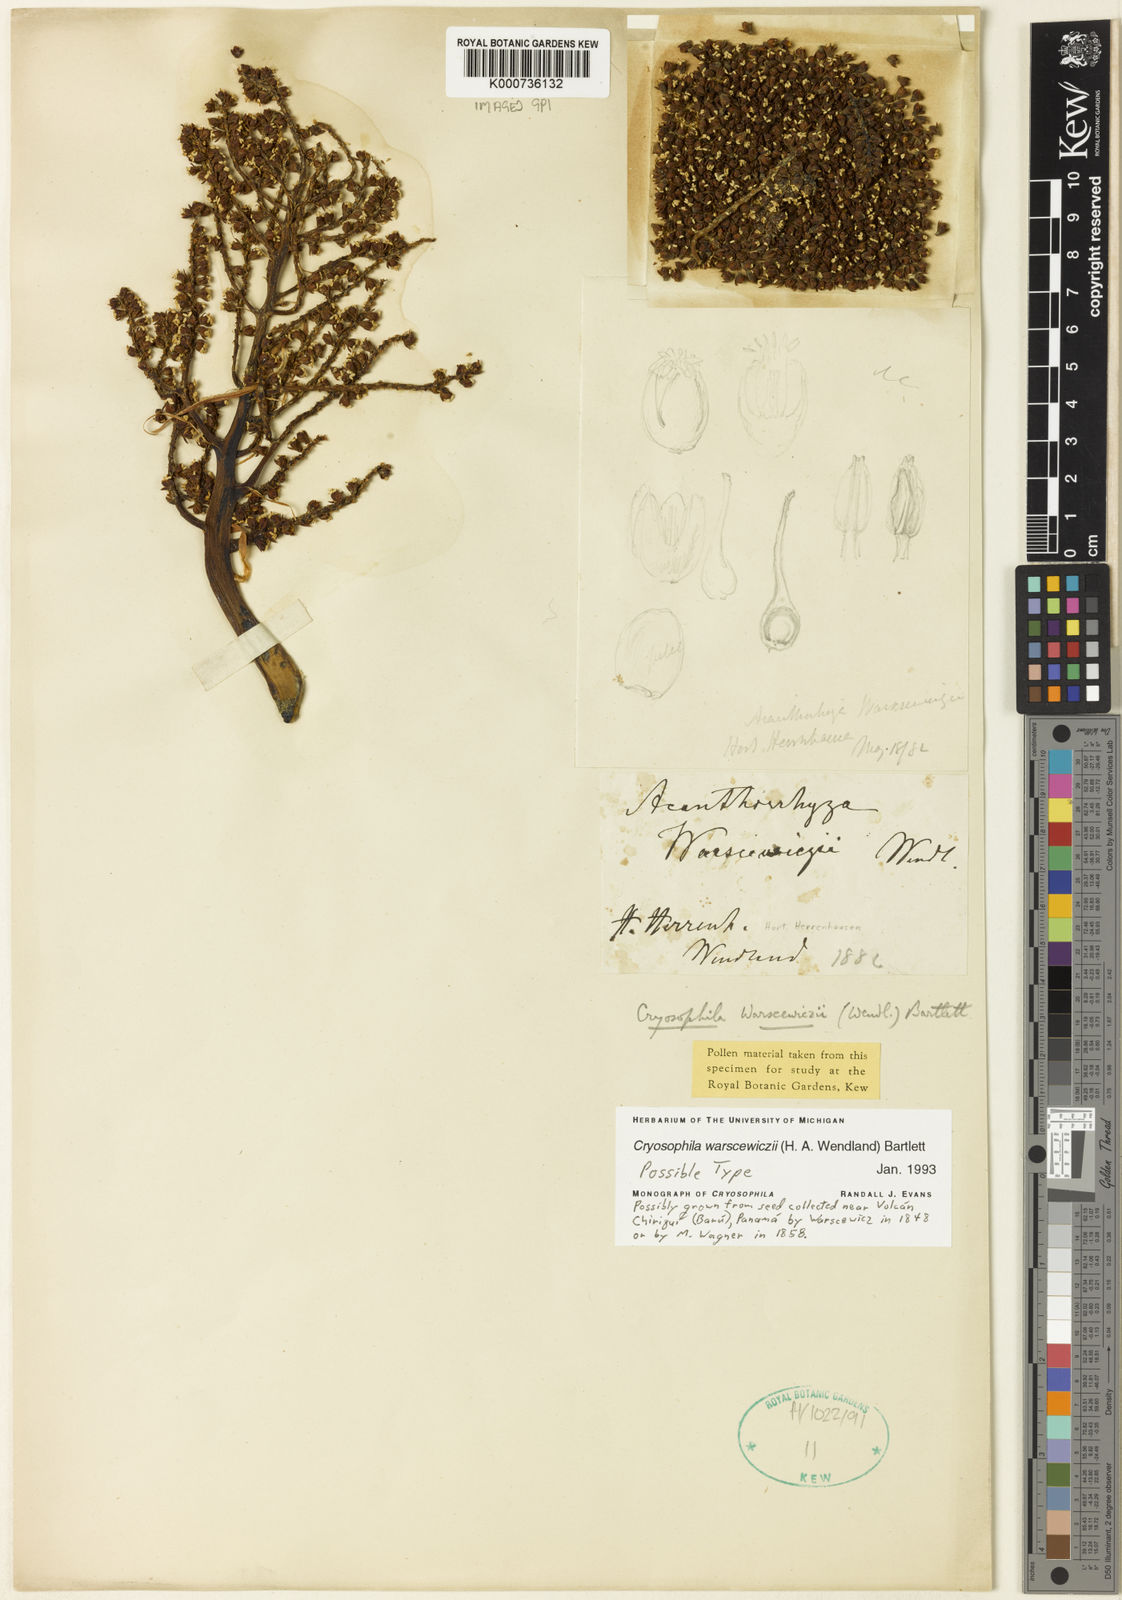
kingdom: Plantae
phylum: Tracheophyta
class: Liliopsida
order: Arecales
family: Arecaceae
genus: Cryosophila
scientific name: Cryosophila warscewiczii
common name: Root-spine palm
